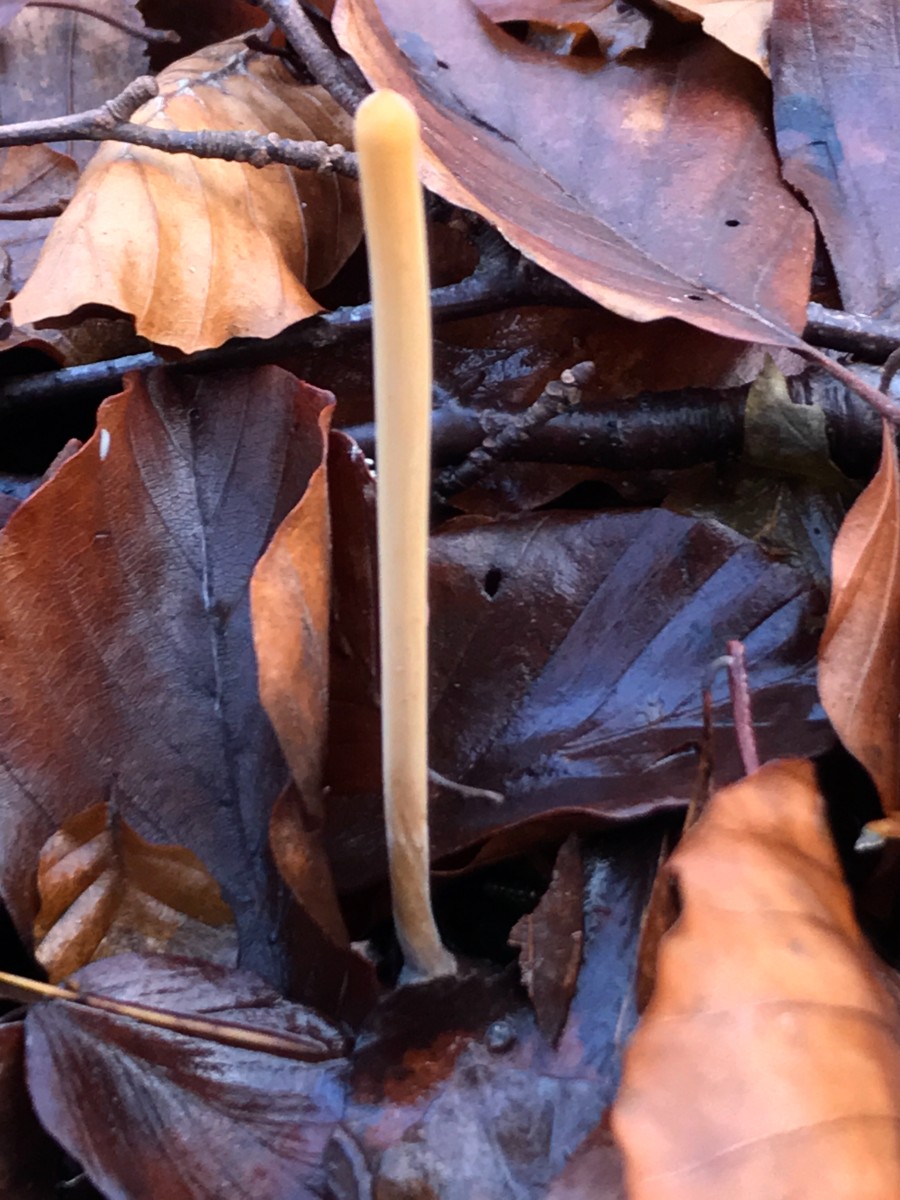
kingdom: Fungi
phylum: Basidiomycota
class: Agaricomycetes
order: Agaricales
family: Typhulaceae
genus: Typhula
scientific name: Typhula fistulosa
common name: pibet rørkølle
